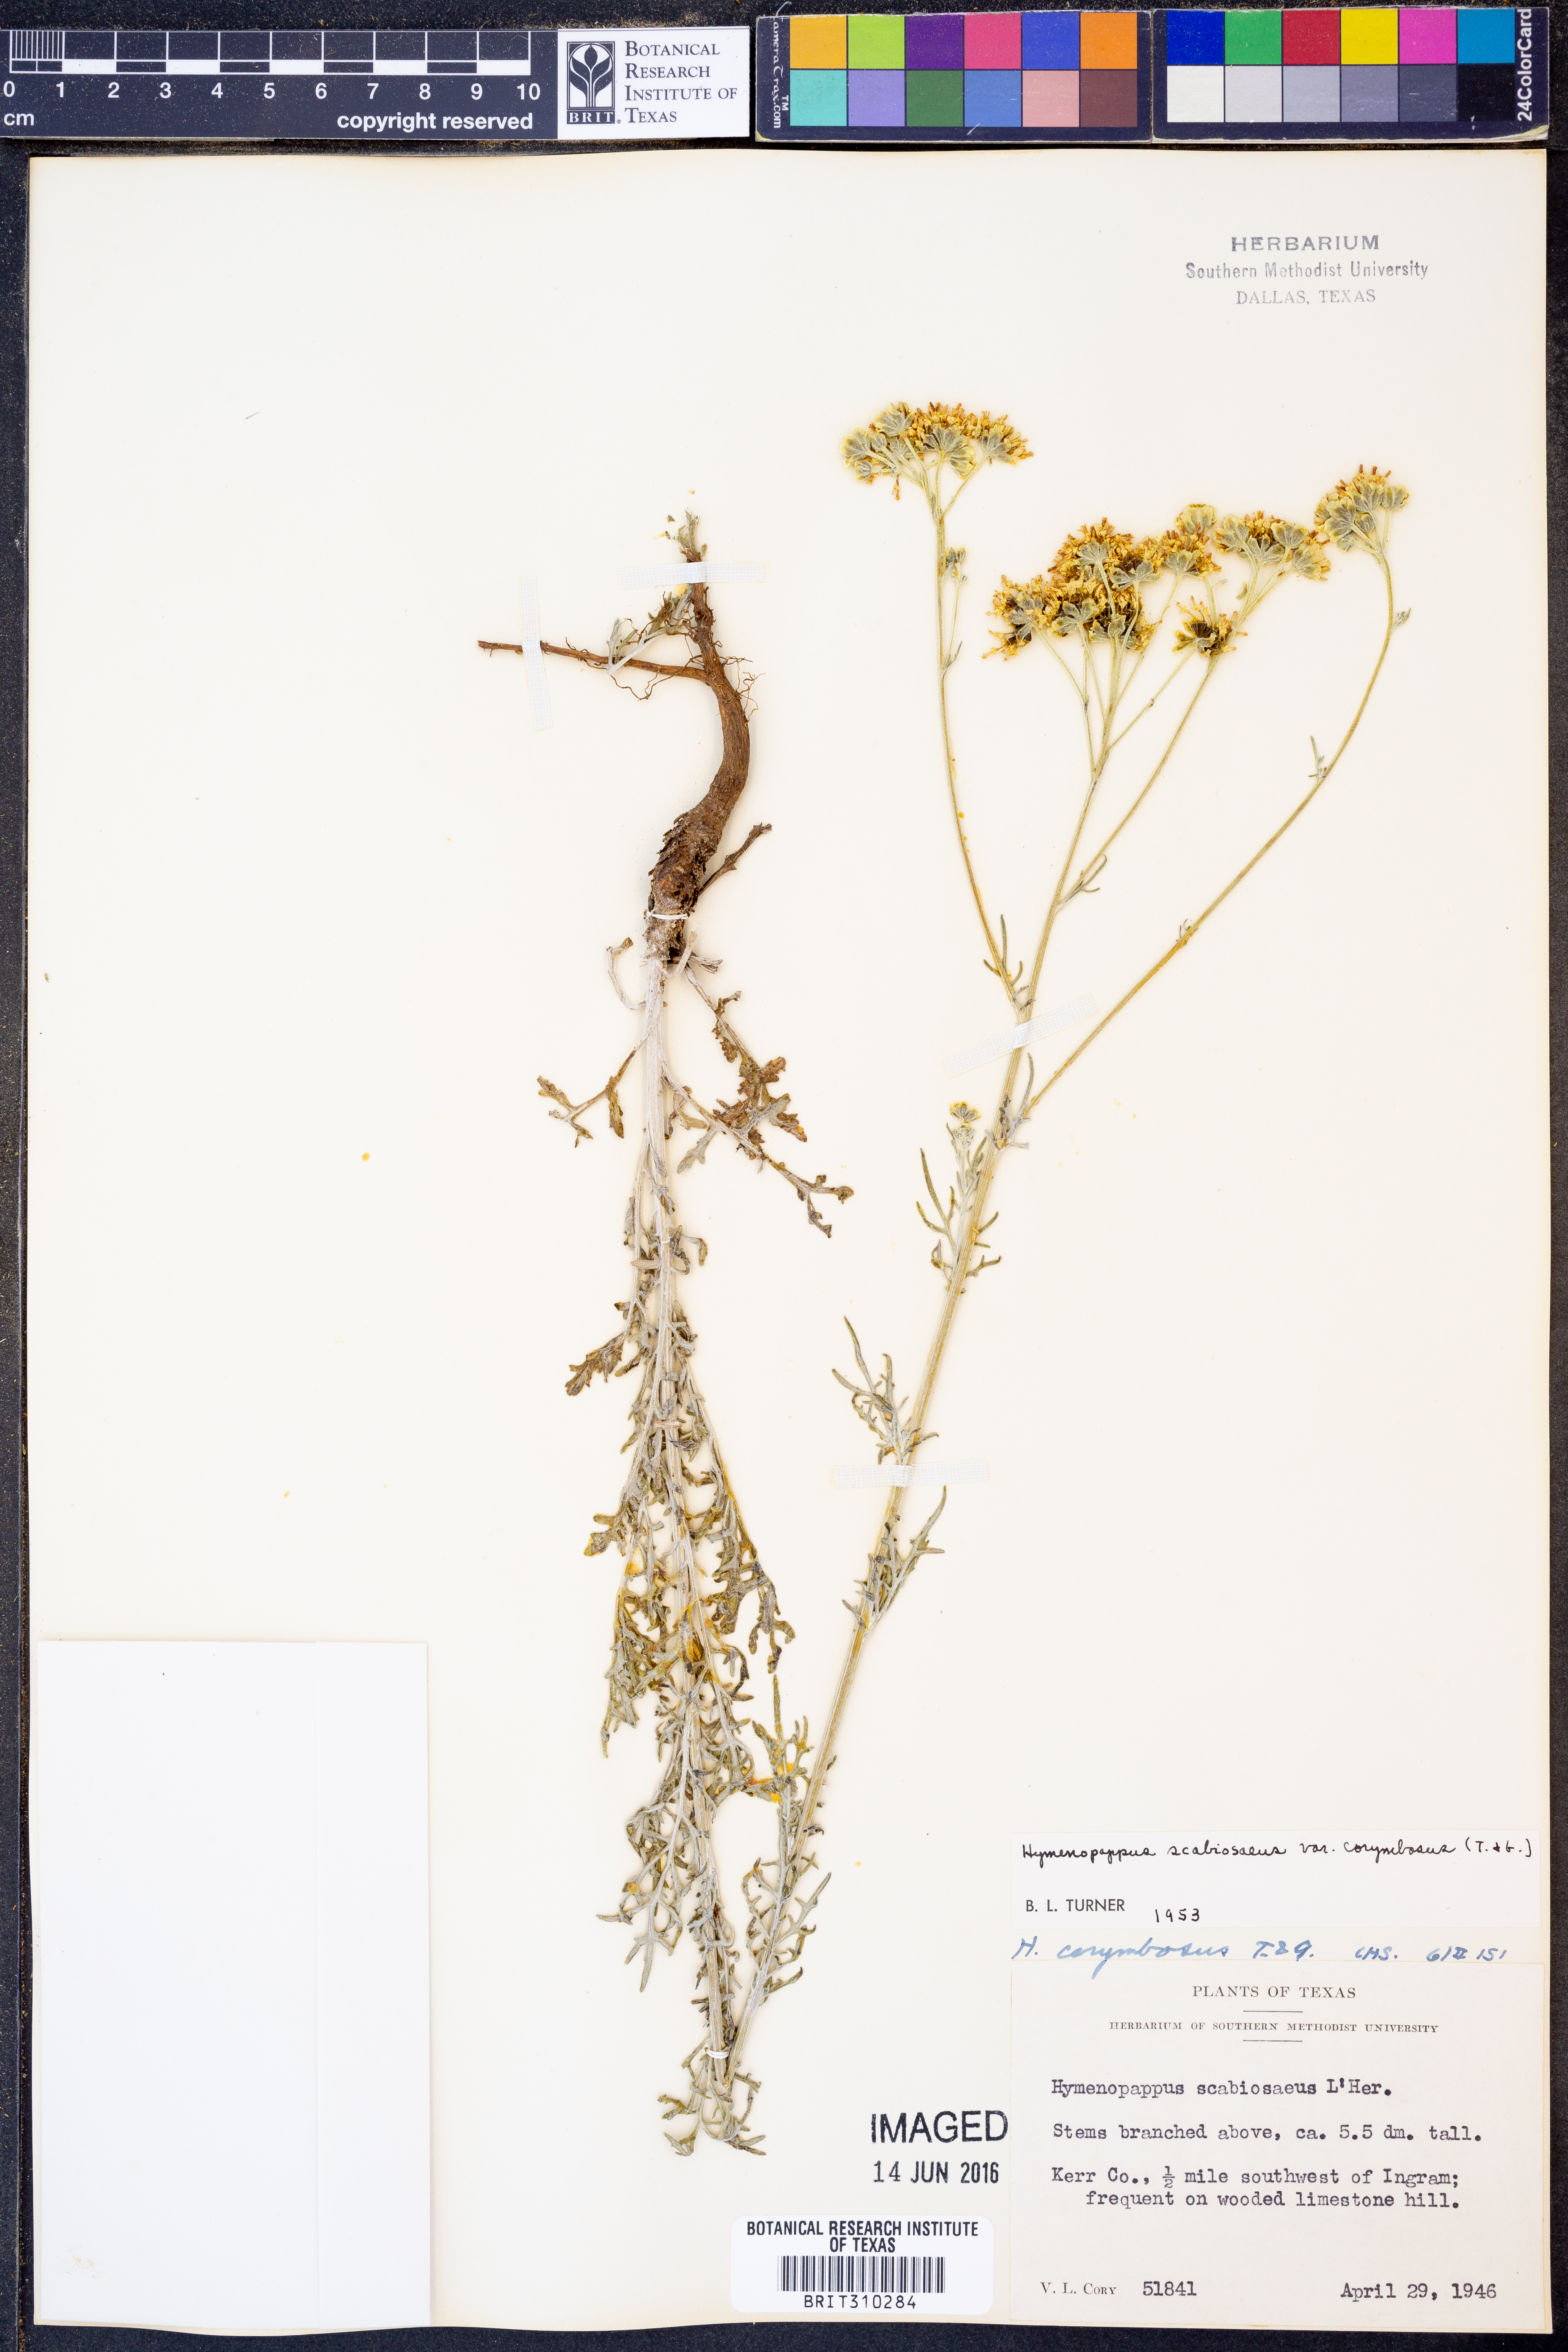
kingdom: Plantae
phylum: Tracheophyta
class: Magnoliopsida
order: Asterales
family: Asteraceae
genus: Hymenopappus
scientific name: Hymenopappus scabiosaeus
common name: Carolina woollywhite
